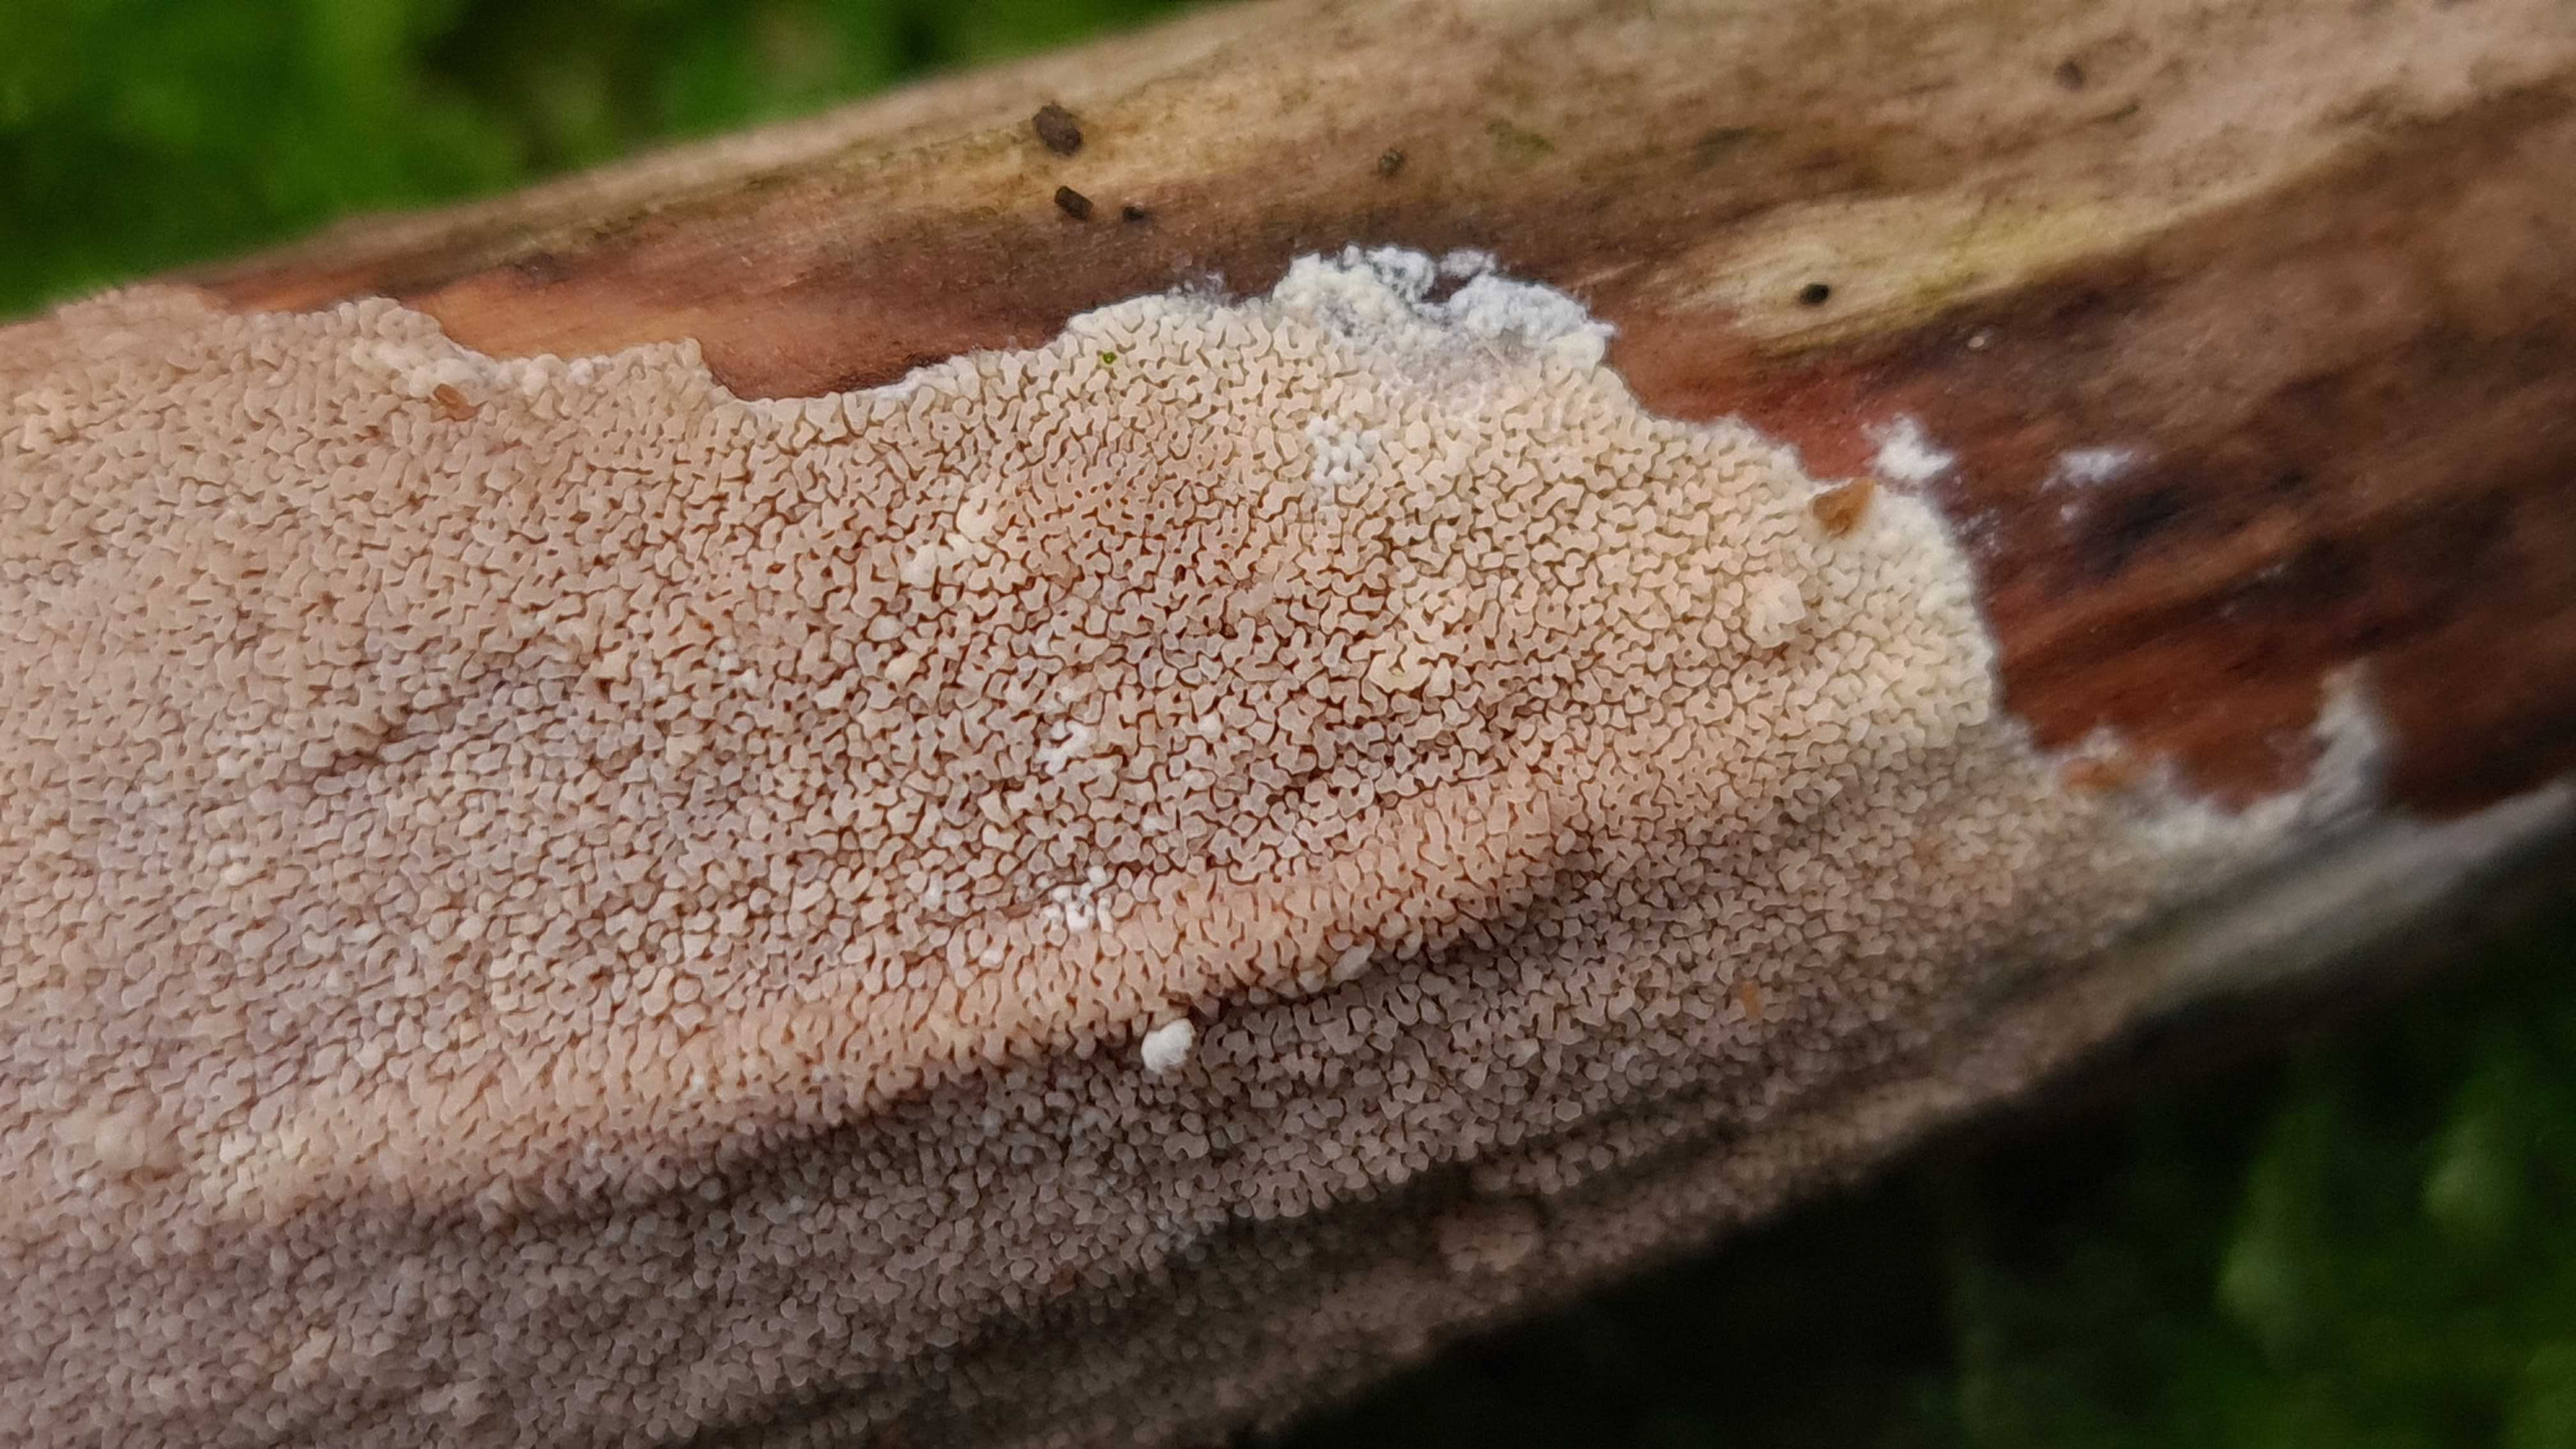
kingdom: Fungi
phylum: Basidiomycota
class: Agaricomycetes
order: Corticiales
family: Corticiaceae
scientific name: Corticiaceae
